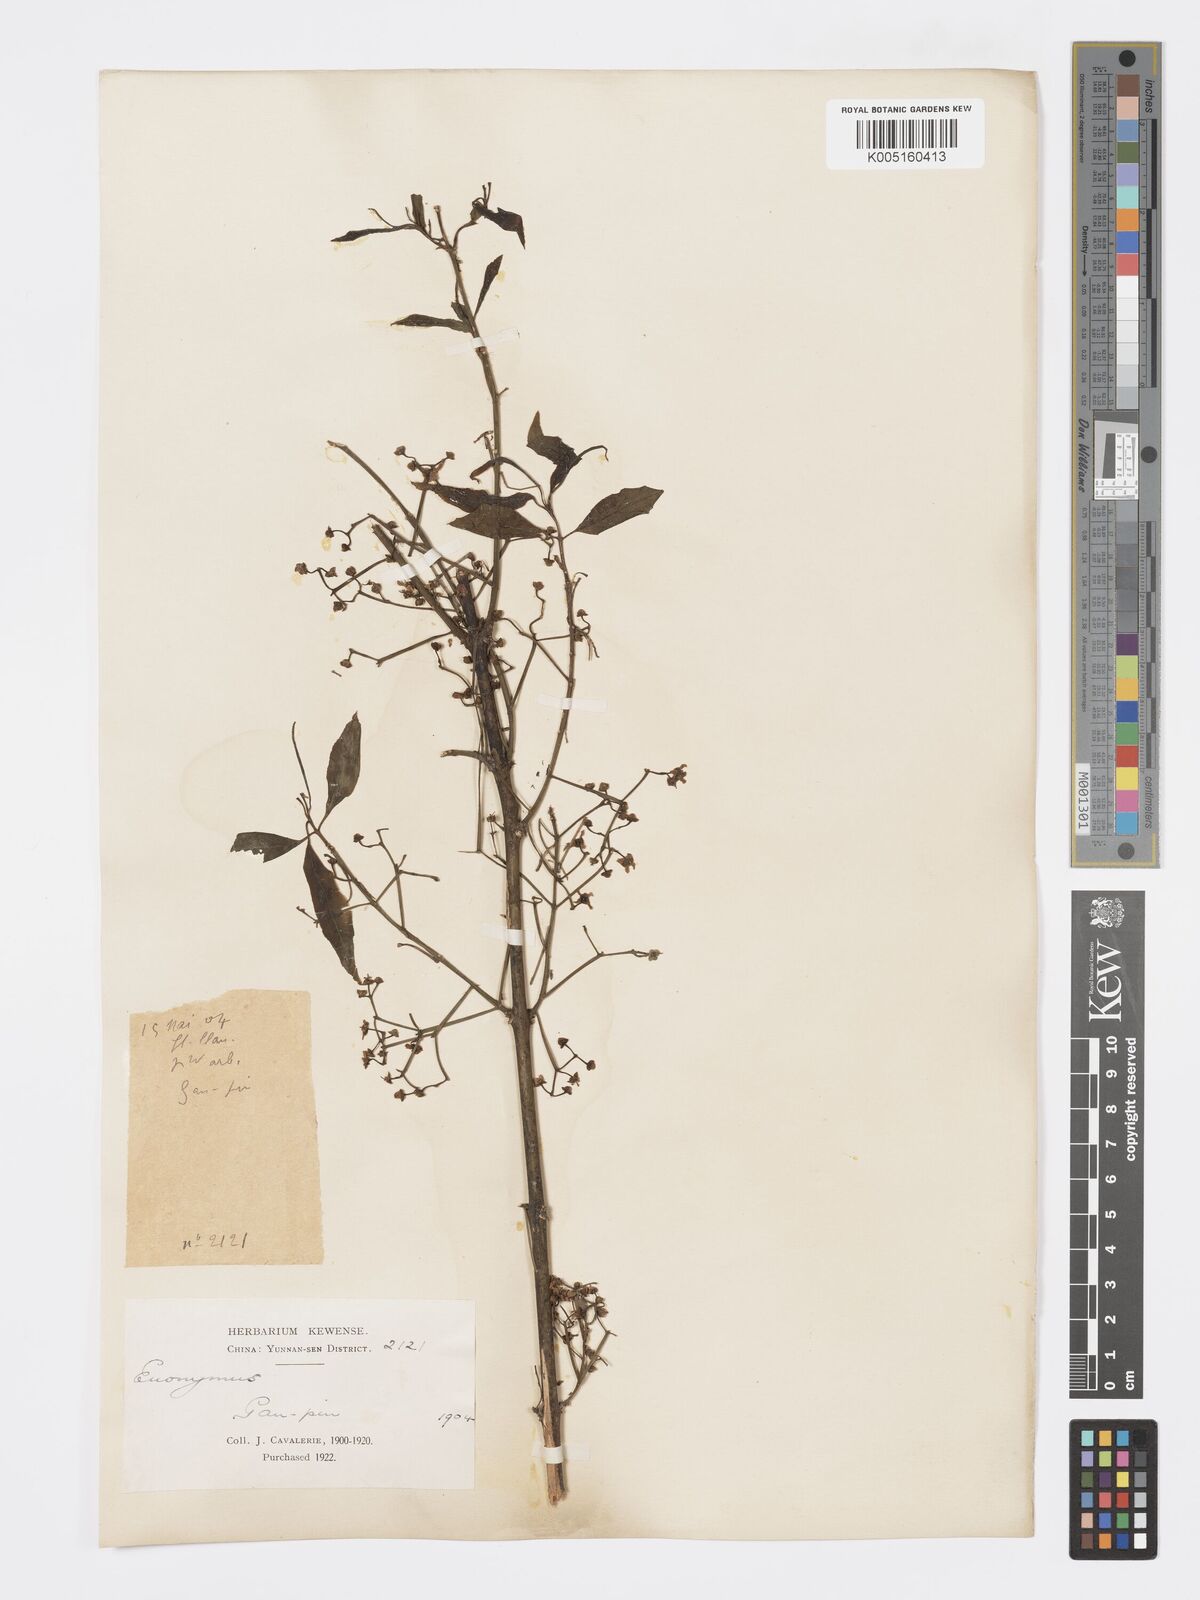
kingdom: Plantae
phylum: Tracheophyta
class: Magnoliopsida
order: Celastrales
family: Celastraceae
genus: Euonymus
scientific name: Euonymus
